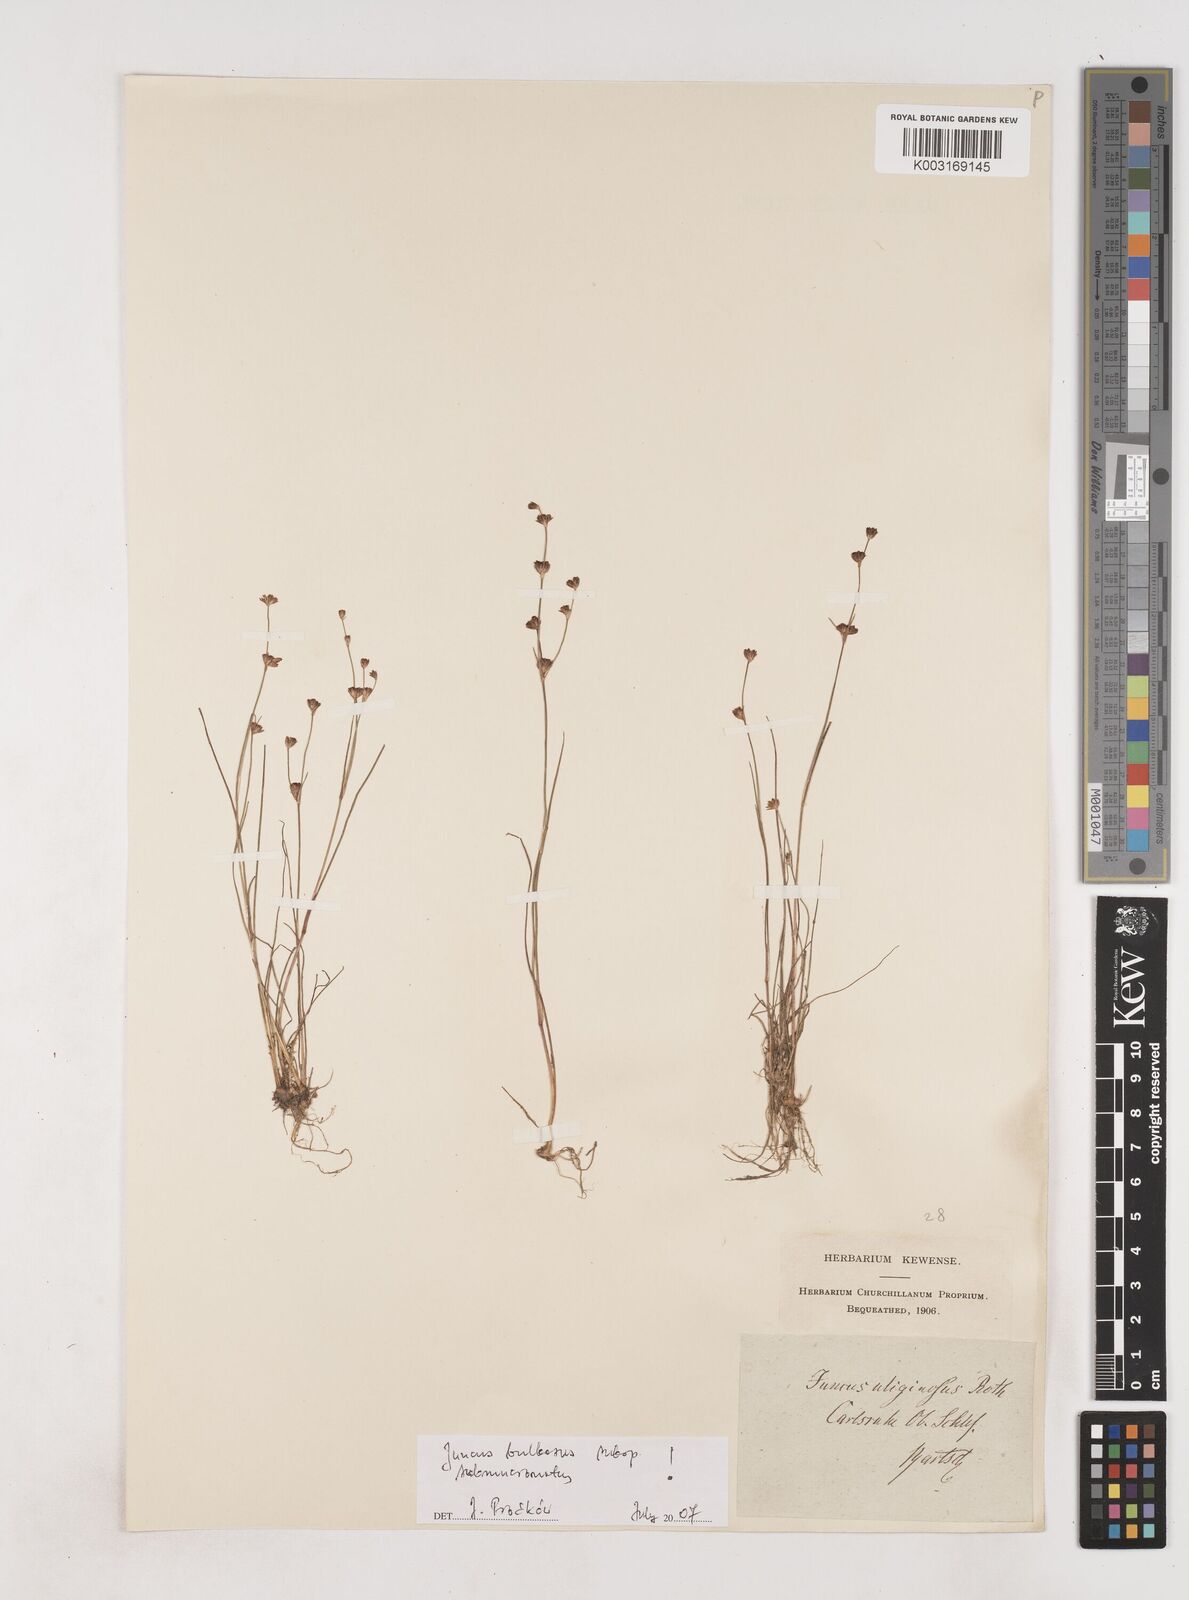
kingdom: Plantae
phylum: Tracheophyta
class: Liliopsida
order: Poales
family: Juncaceae
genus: Juncus
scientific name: Juncus bulbosus
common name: Bulbous rush
